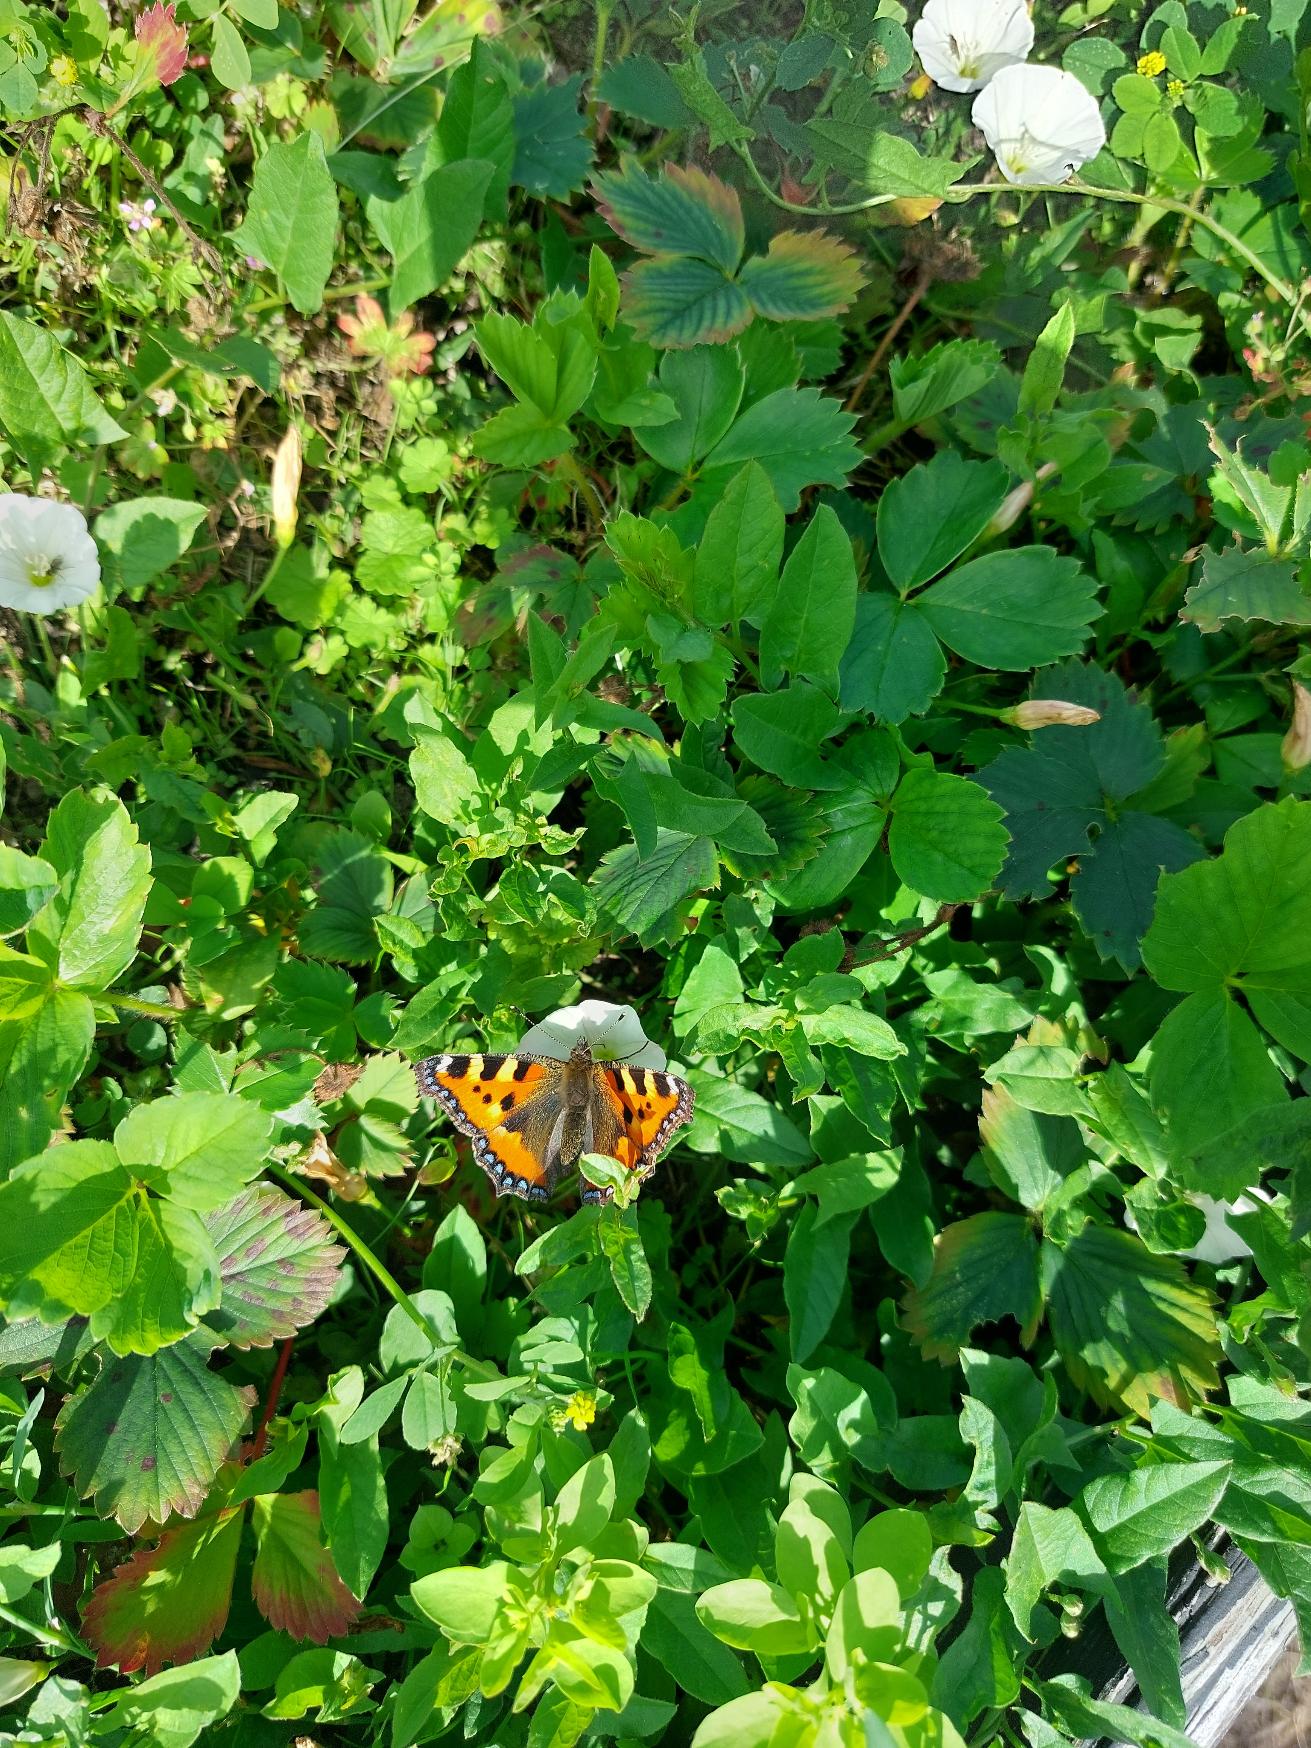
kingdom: Animalia
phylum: Arthropoda
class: Insecta
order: Lepidoptera
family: Nymphalidae
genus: Aglais
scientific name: Aglais urticae
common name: Nældens takvinge
